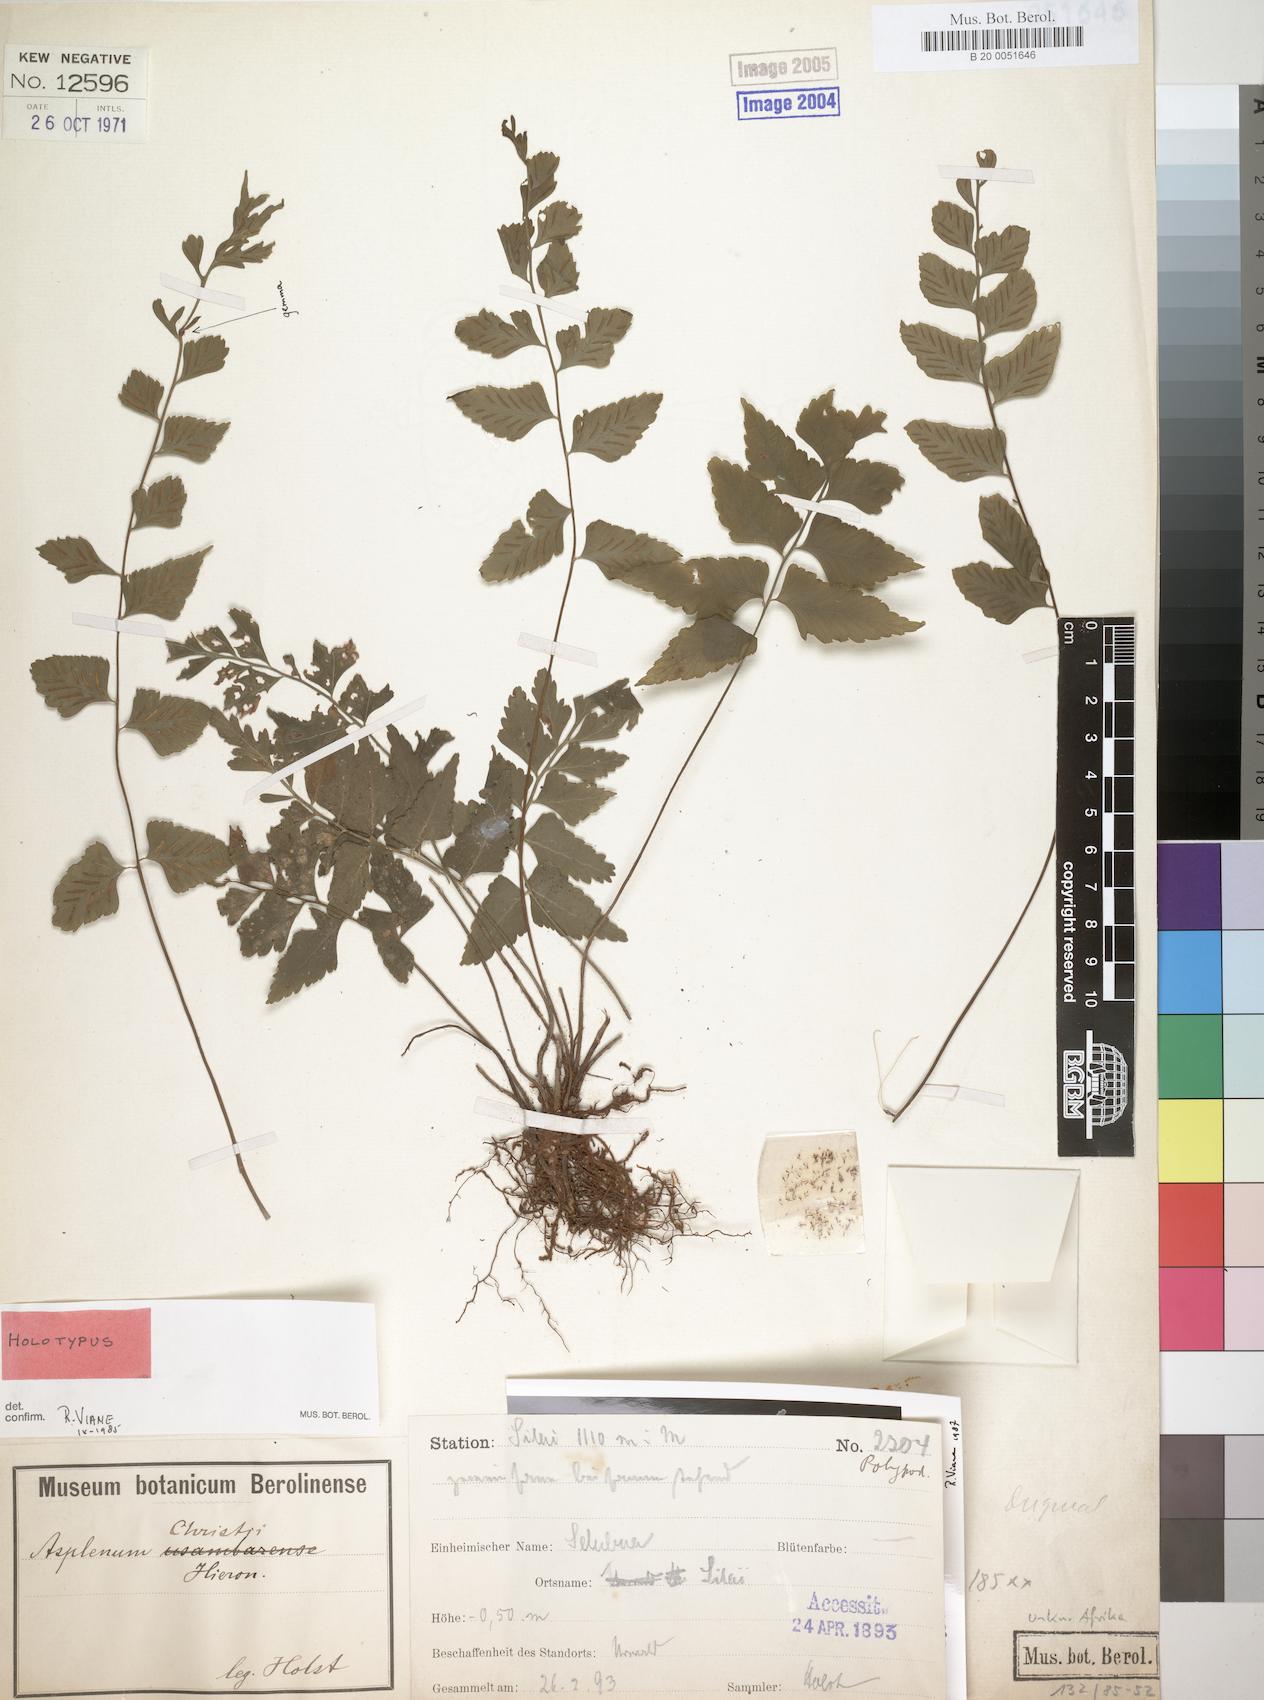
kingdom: Plantae
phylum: Tracheophyta
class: Polypodiopsida
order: Polypodiales
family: Aspleniaceae
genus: Asplenium
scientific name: Asplenium christii
